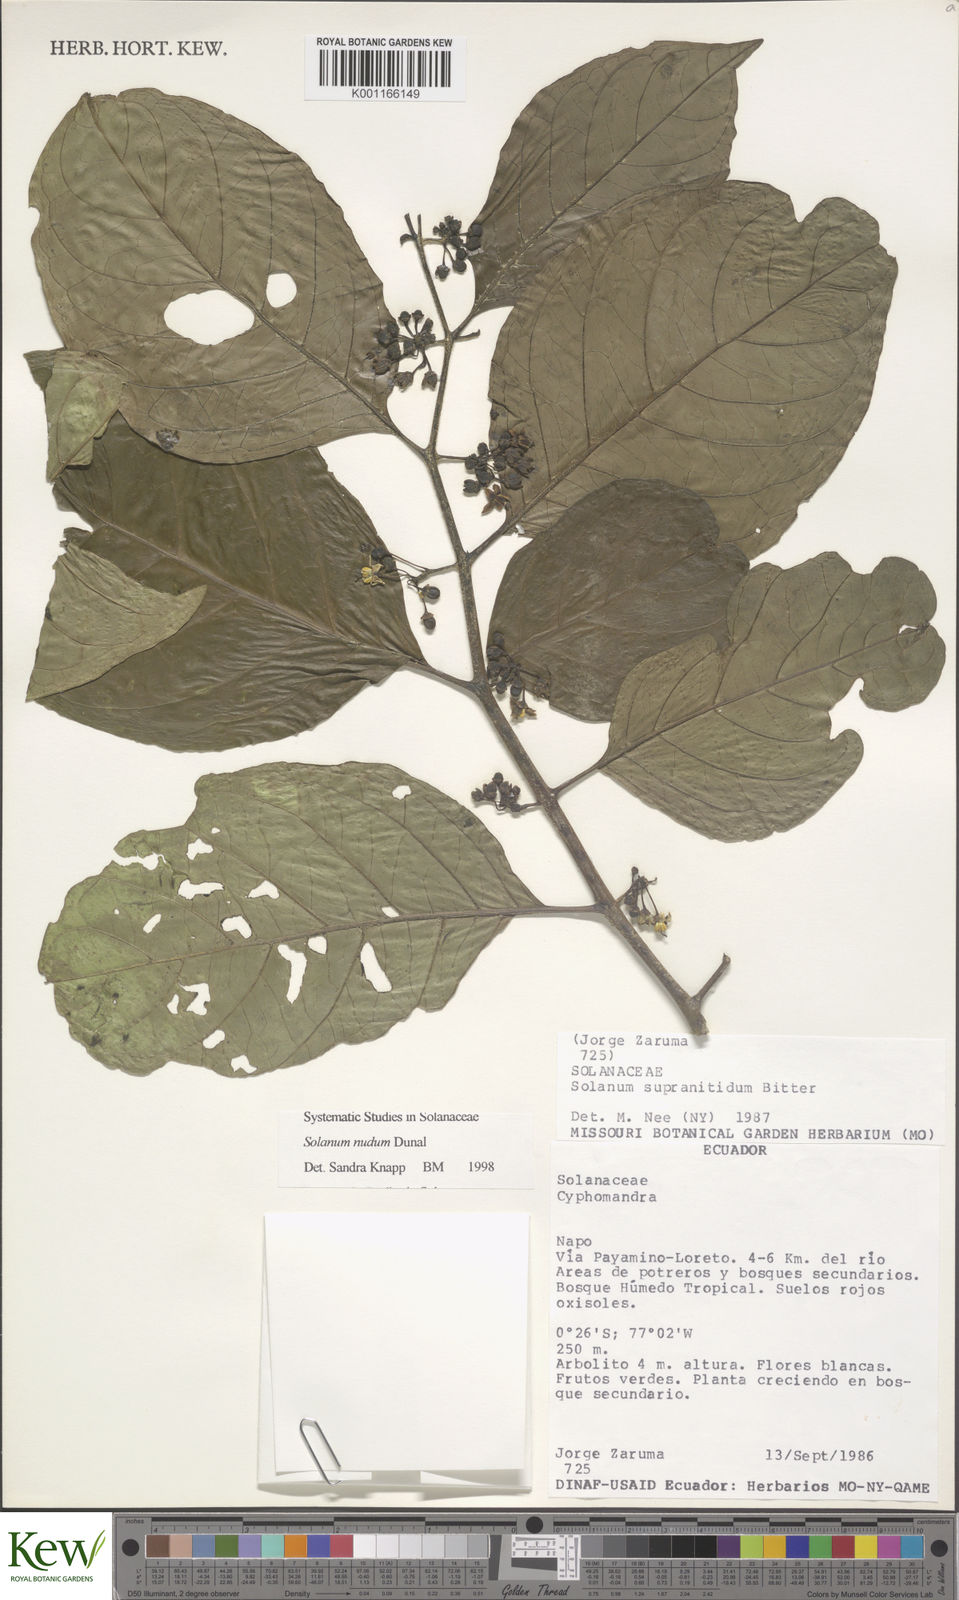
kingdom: Plantae
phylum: Tracheophyta
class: Magnoliopsida
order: Solanales
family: Solanaceae
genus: Solanum
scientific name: Solanum nudum
